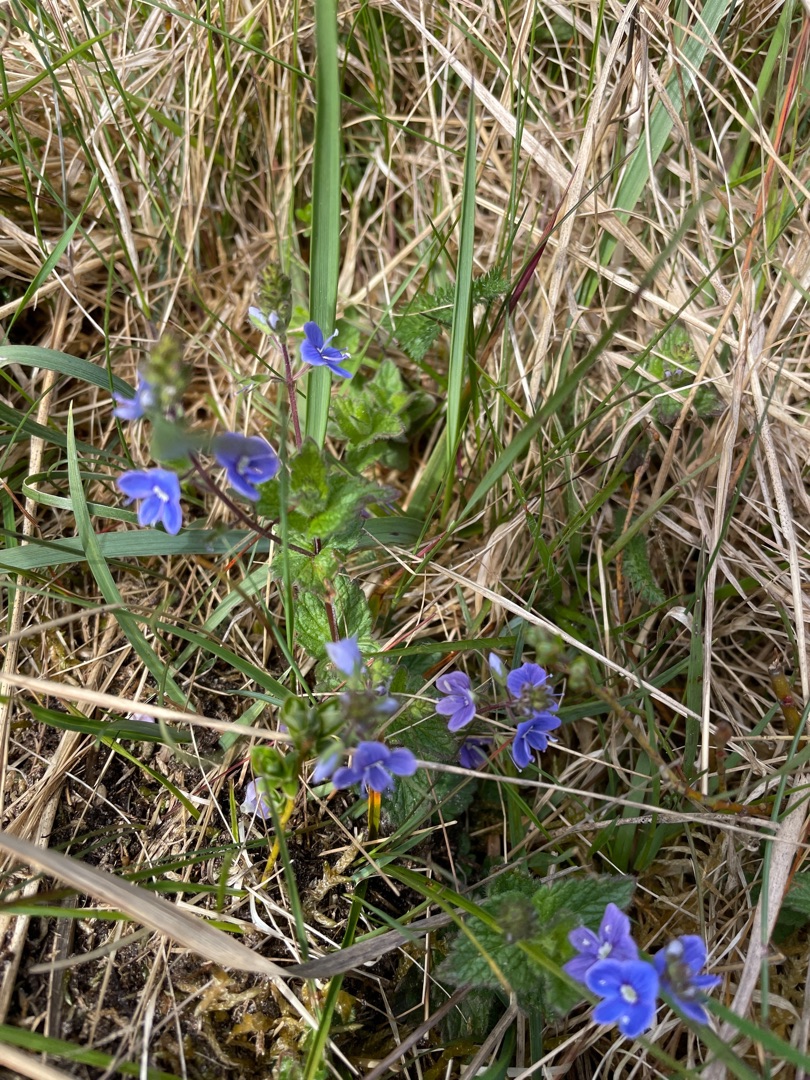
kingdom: Plantae
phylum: Tracheophyta
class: Magnoliopsida
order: Lamiales
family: Plantaginaceae
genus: Veronica
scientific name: Veronica chamaedrys
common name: Tveskægget ærenpris
